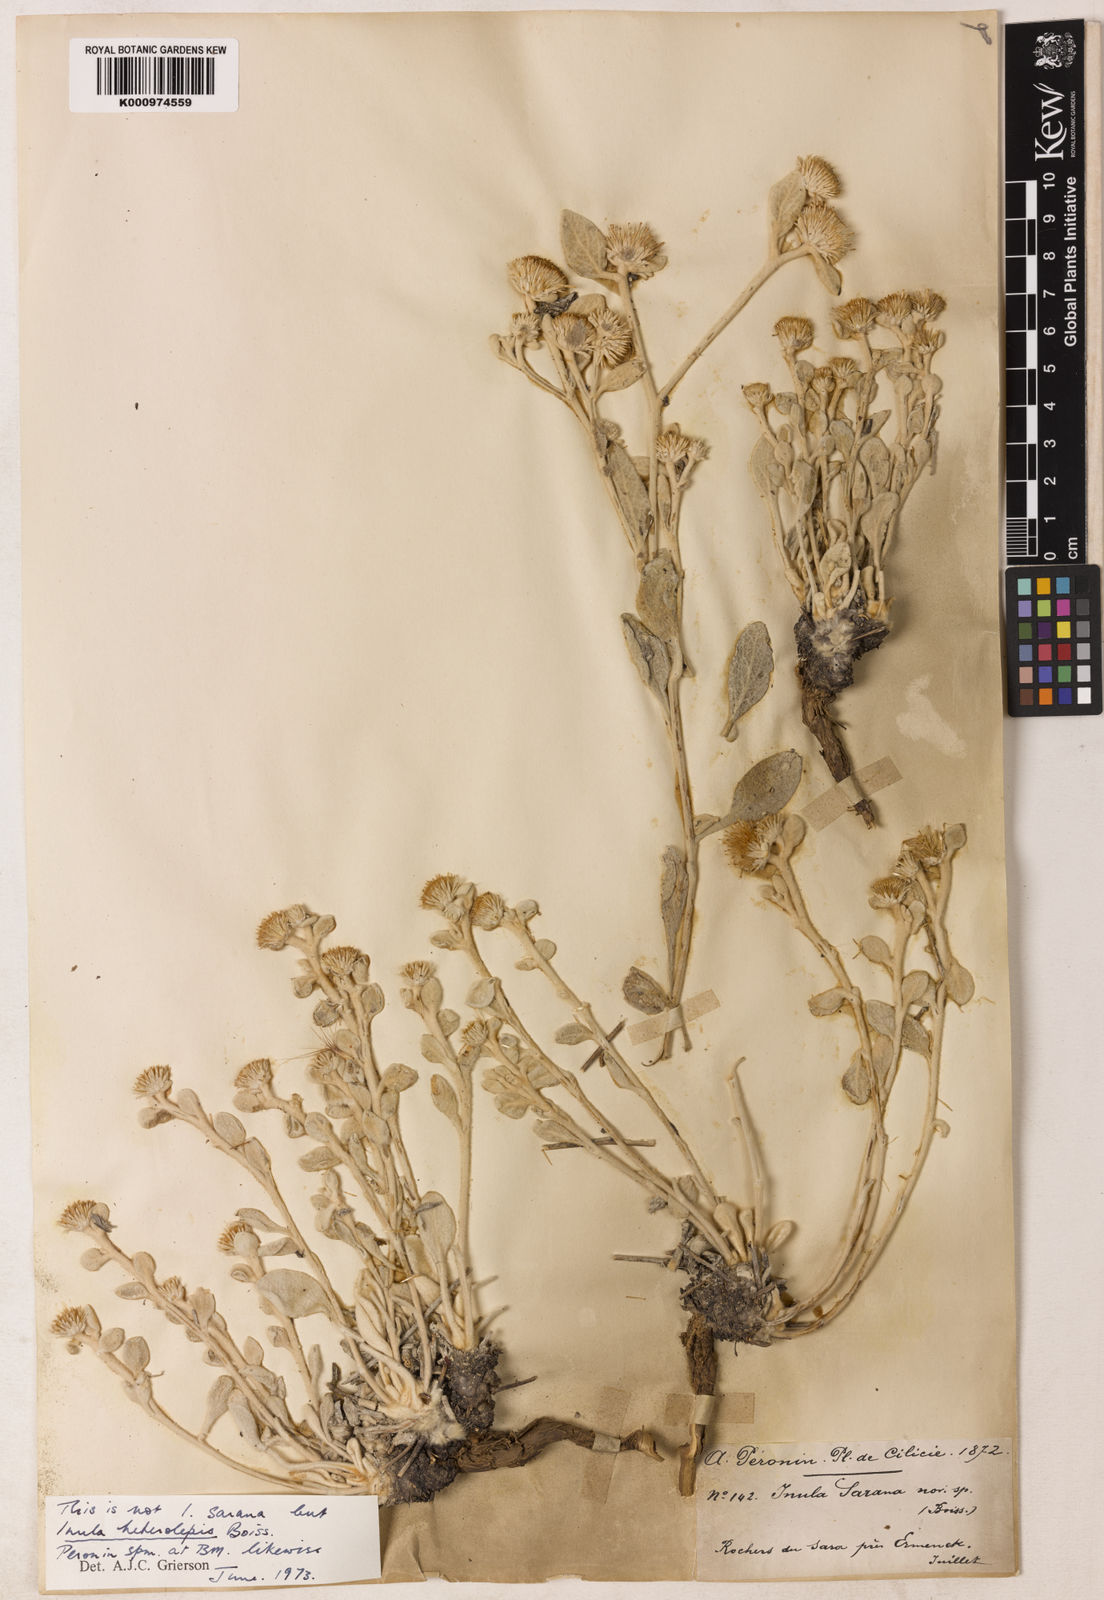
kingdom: Plantae
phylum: Tracheophyta
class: Magnoliopsida
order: Asterales
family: Asteraceae
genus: Inula
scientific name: Inula sarana
